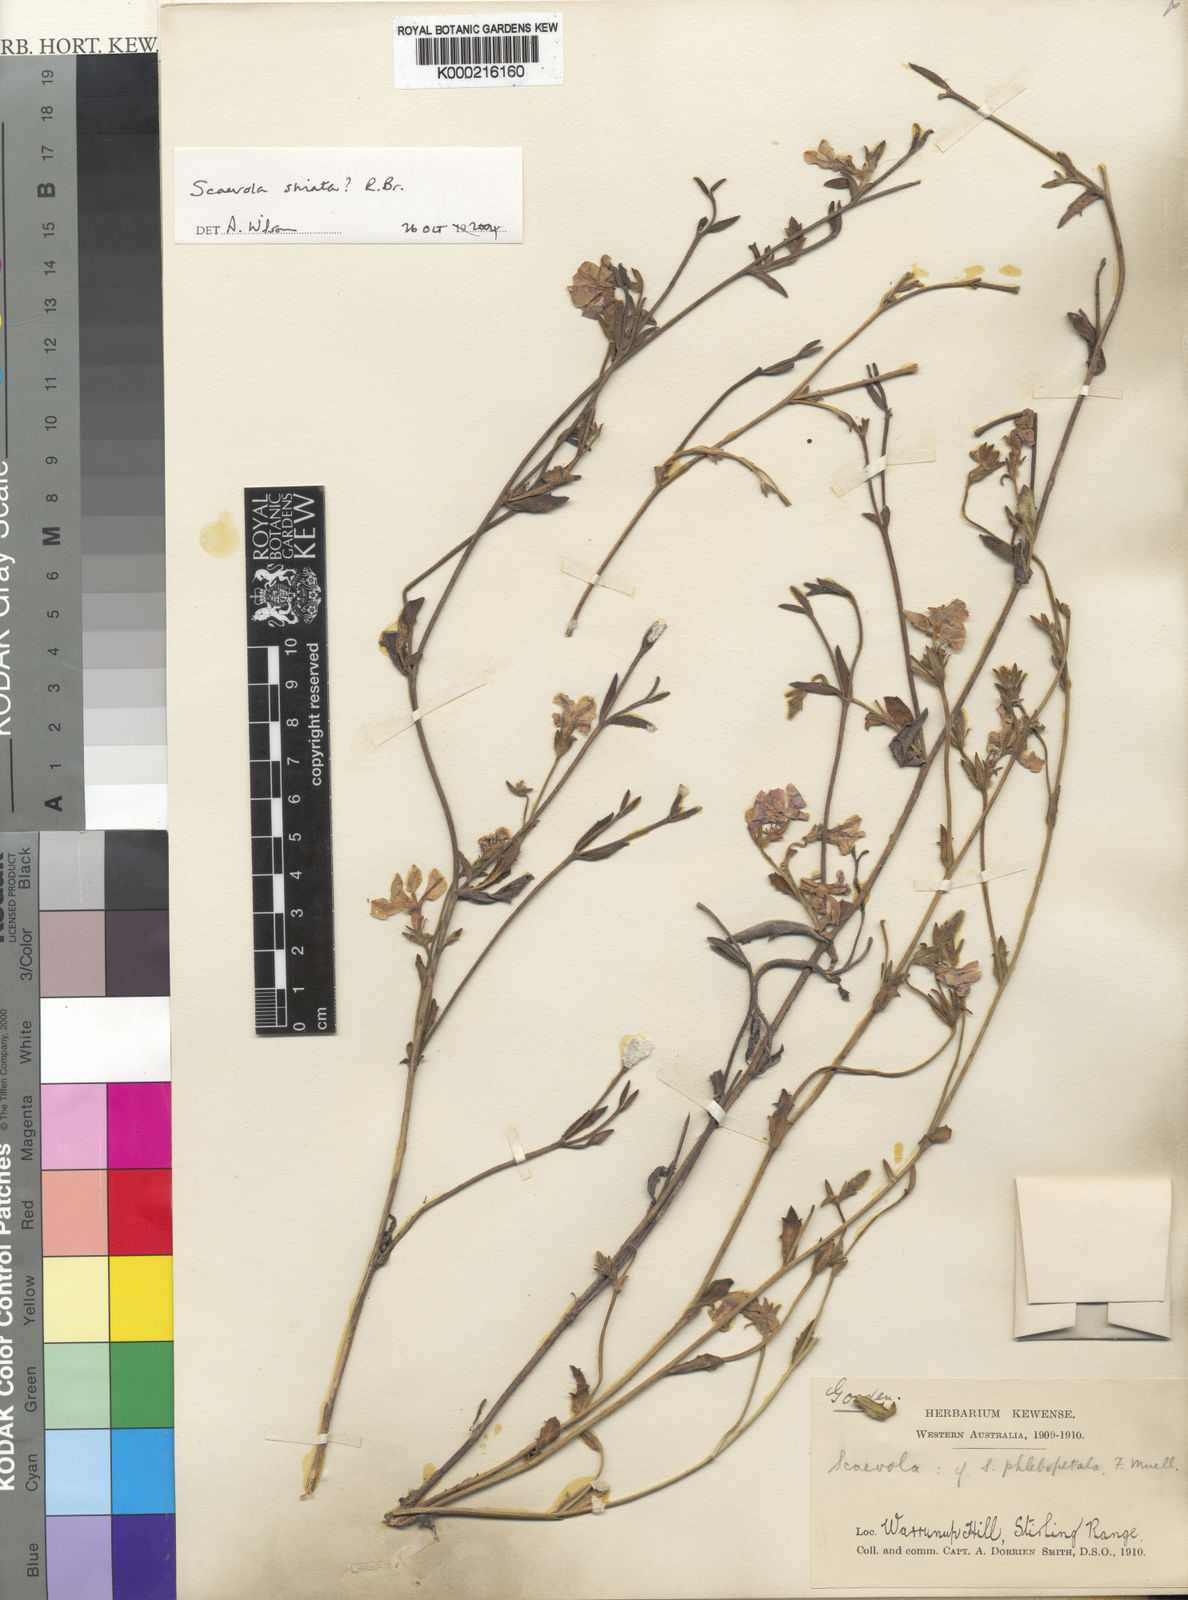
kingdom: Plantae
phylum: Tracheophyta
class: Magnoliopsida
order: Asterales
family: Goodeniaceae
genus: Scaevola
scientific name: Scaevola striata
